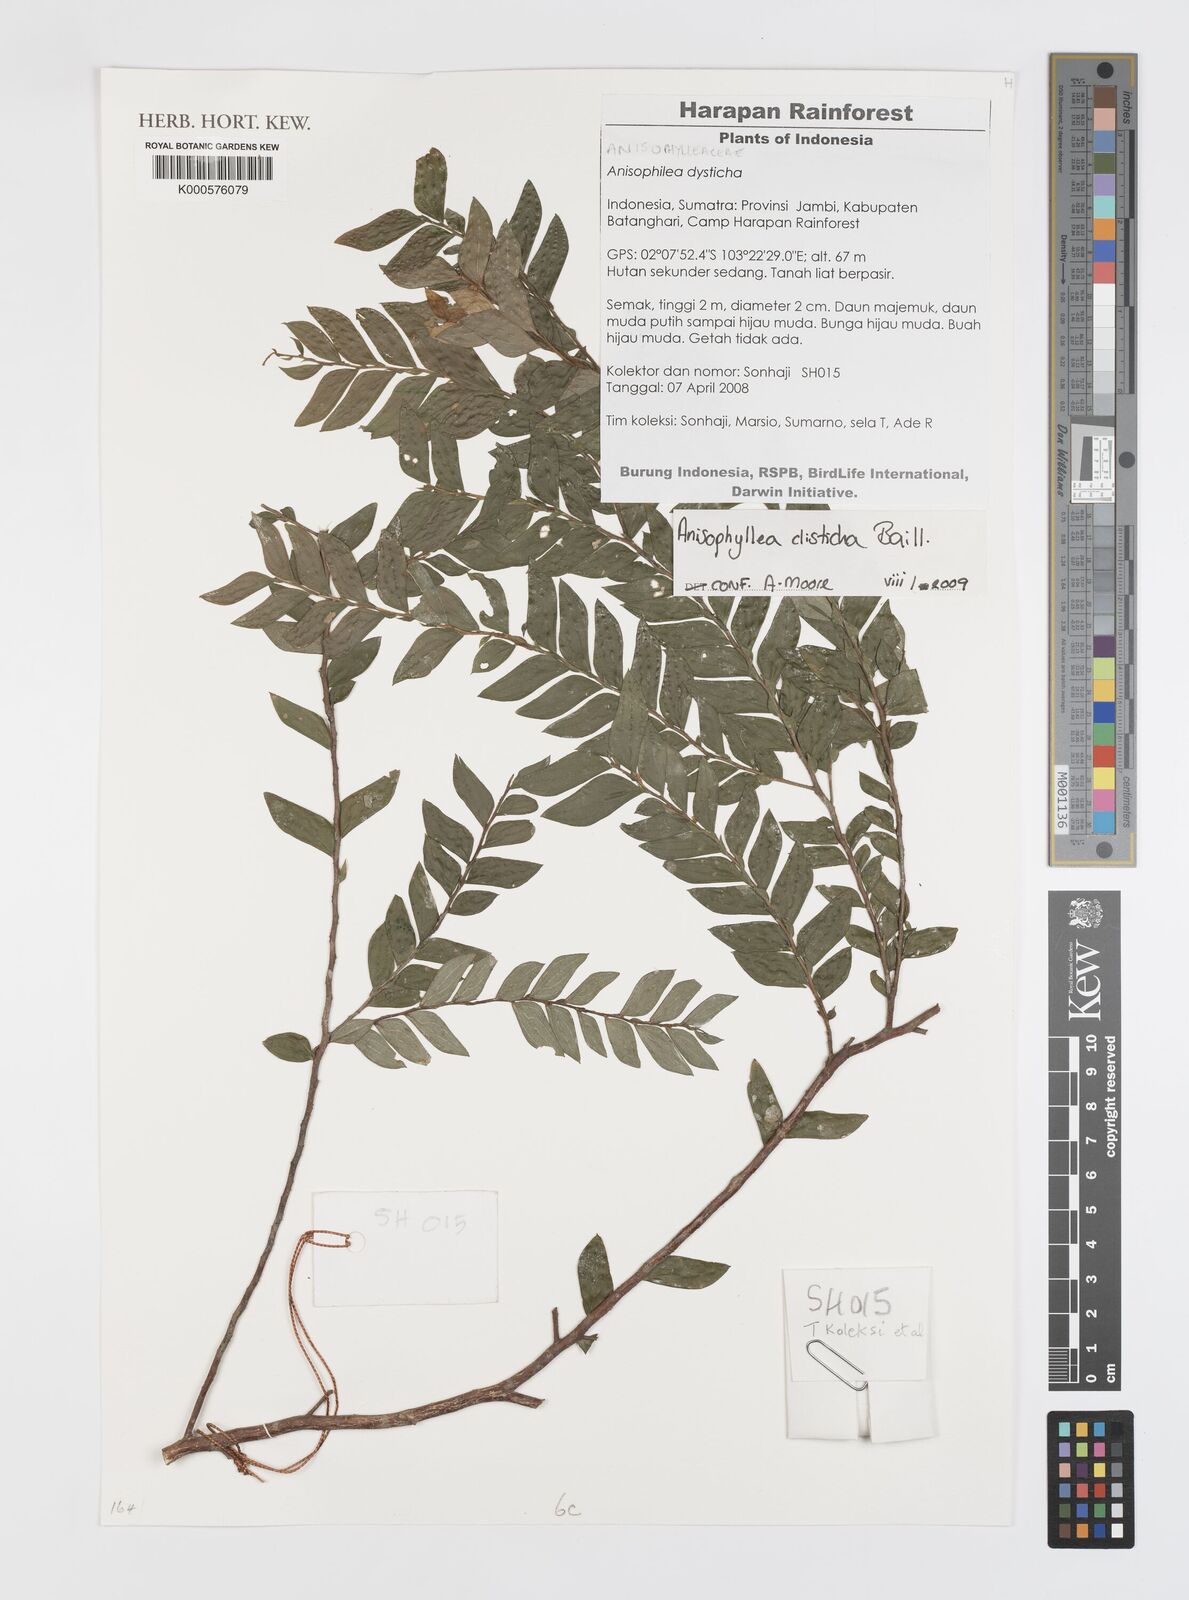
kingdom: Plantae
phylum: Tracheophyta
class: Magnoliopsida
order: Cucurbitales
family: Anisophylleaceae
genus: Anisophyllea
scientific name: Anisophyllea disticha
